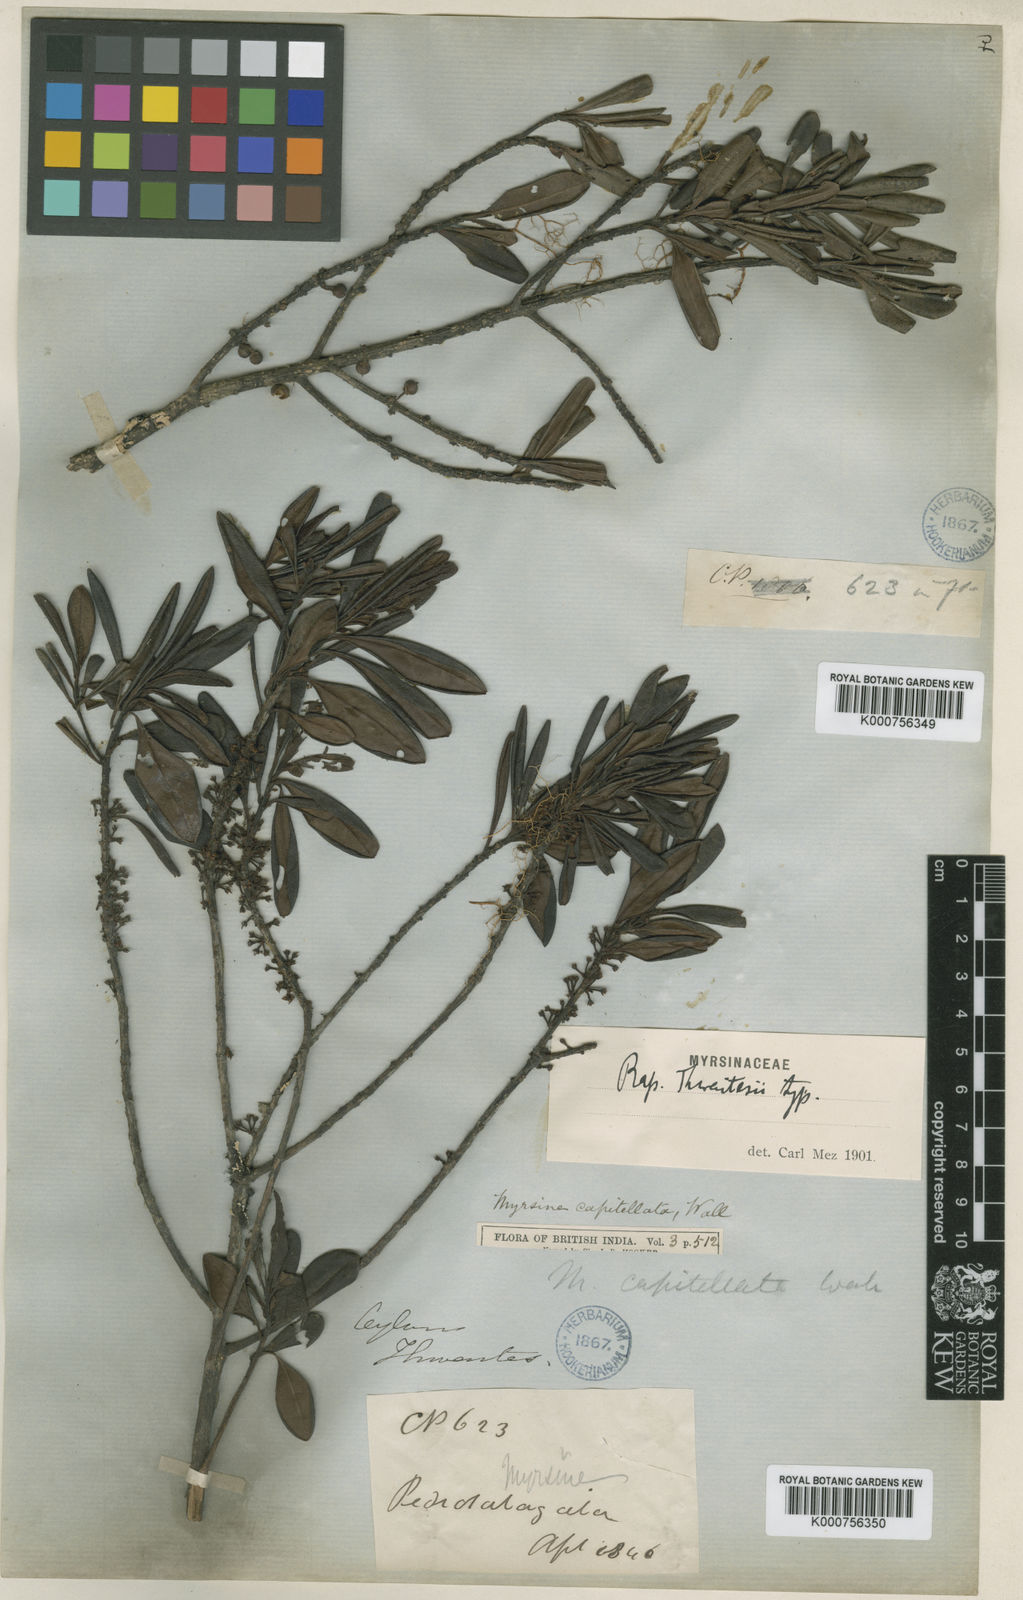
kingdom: Plantae
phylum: Tracheophyta
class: Magnoliopsida
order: Ericales
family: Primulaceae
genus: Myrsine
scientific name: Myrsine thwaitesii
